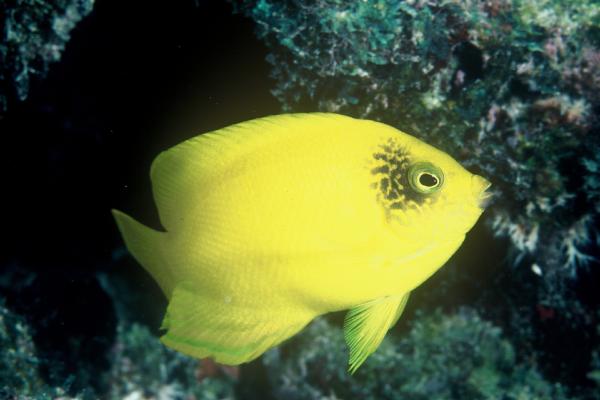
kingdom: Animalia
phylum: Chordata
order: Perciformes
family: Pomacanthidae
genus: Centropyge
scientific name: Centropyge heraldi
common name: Herald's angelfish
